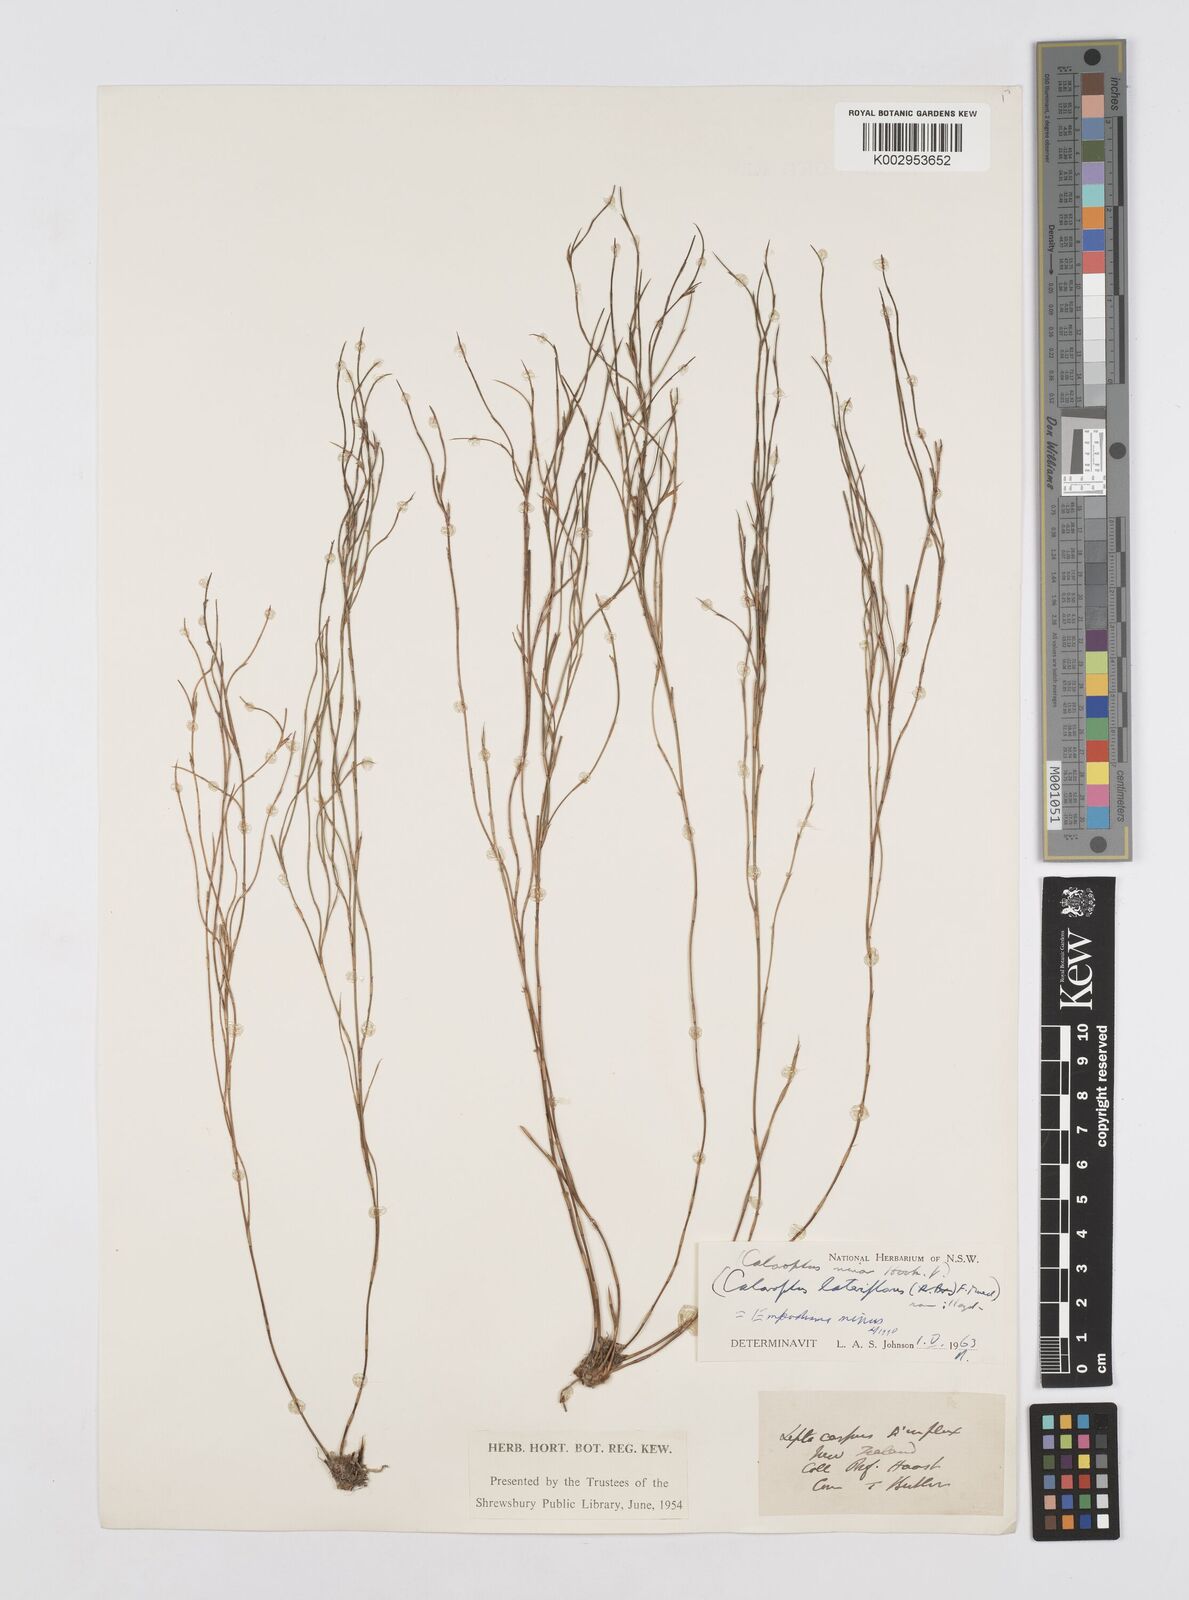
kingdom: Plantae
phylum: Tracheophyta
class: Liliopsida
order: Poales
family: Restionaceae
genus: Empodisma
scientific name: Empodisma minus
